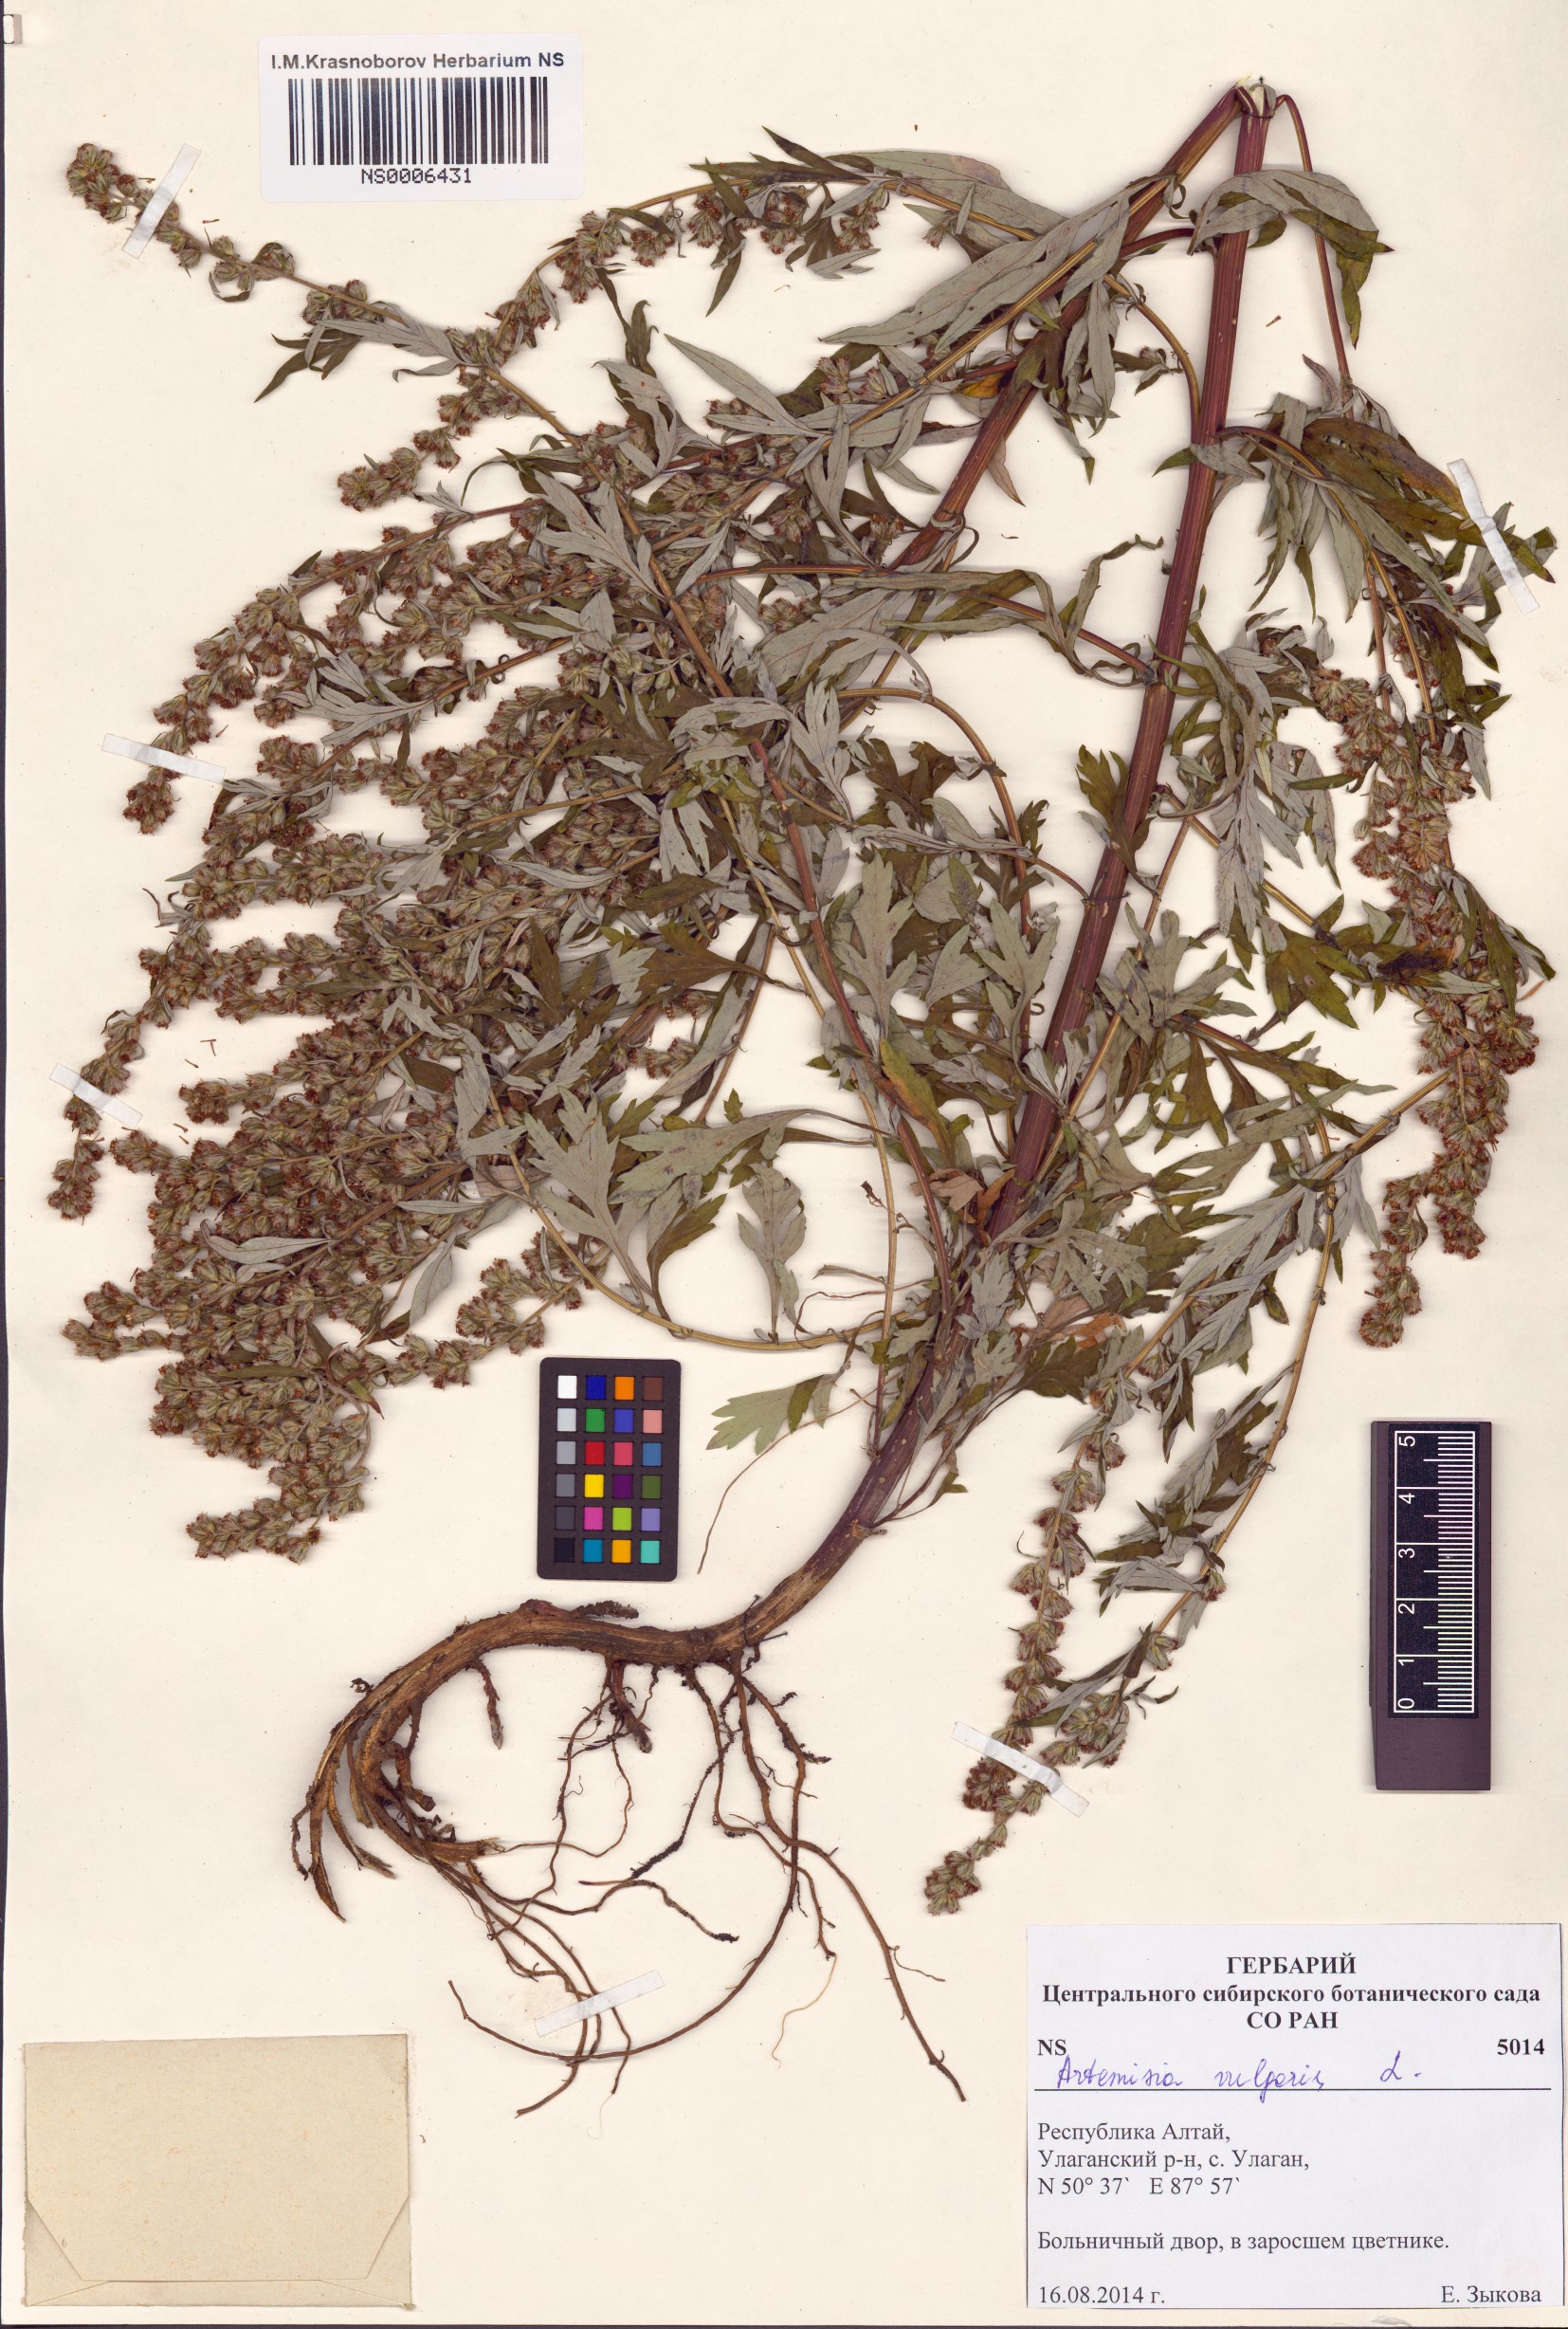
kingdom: Plantae
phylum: Tracheophyta
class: Magnoliopsida
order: Asterales
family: Asteraceae
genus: Artemisia
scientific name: Artemisia vulgaris
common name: Mugwort
